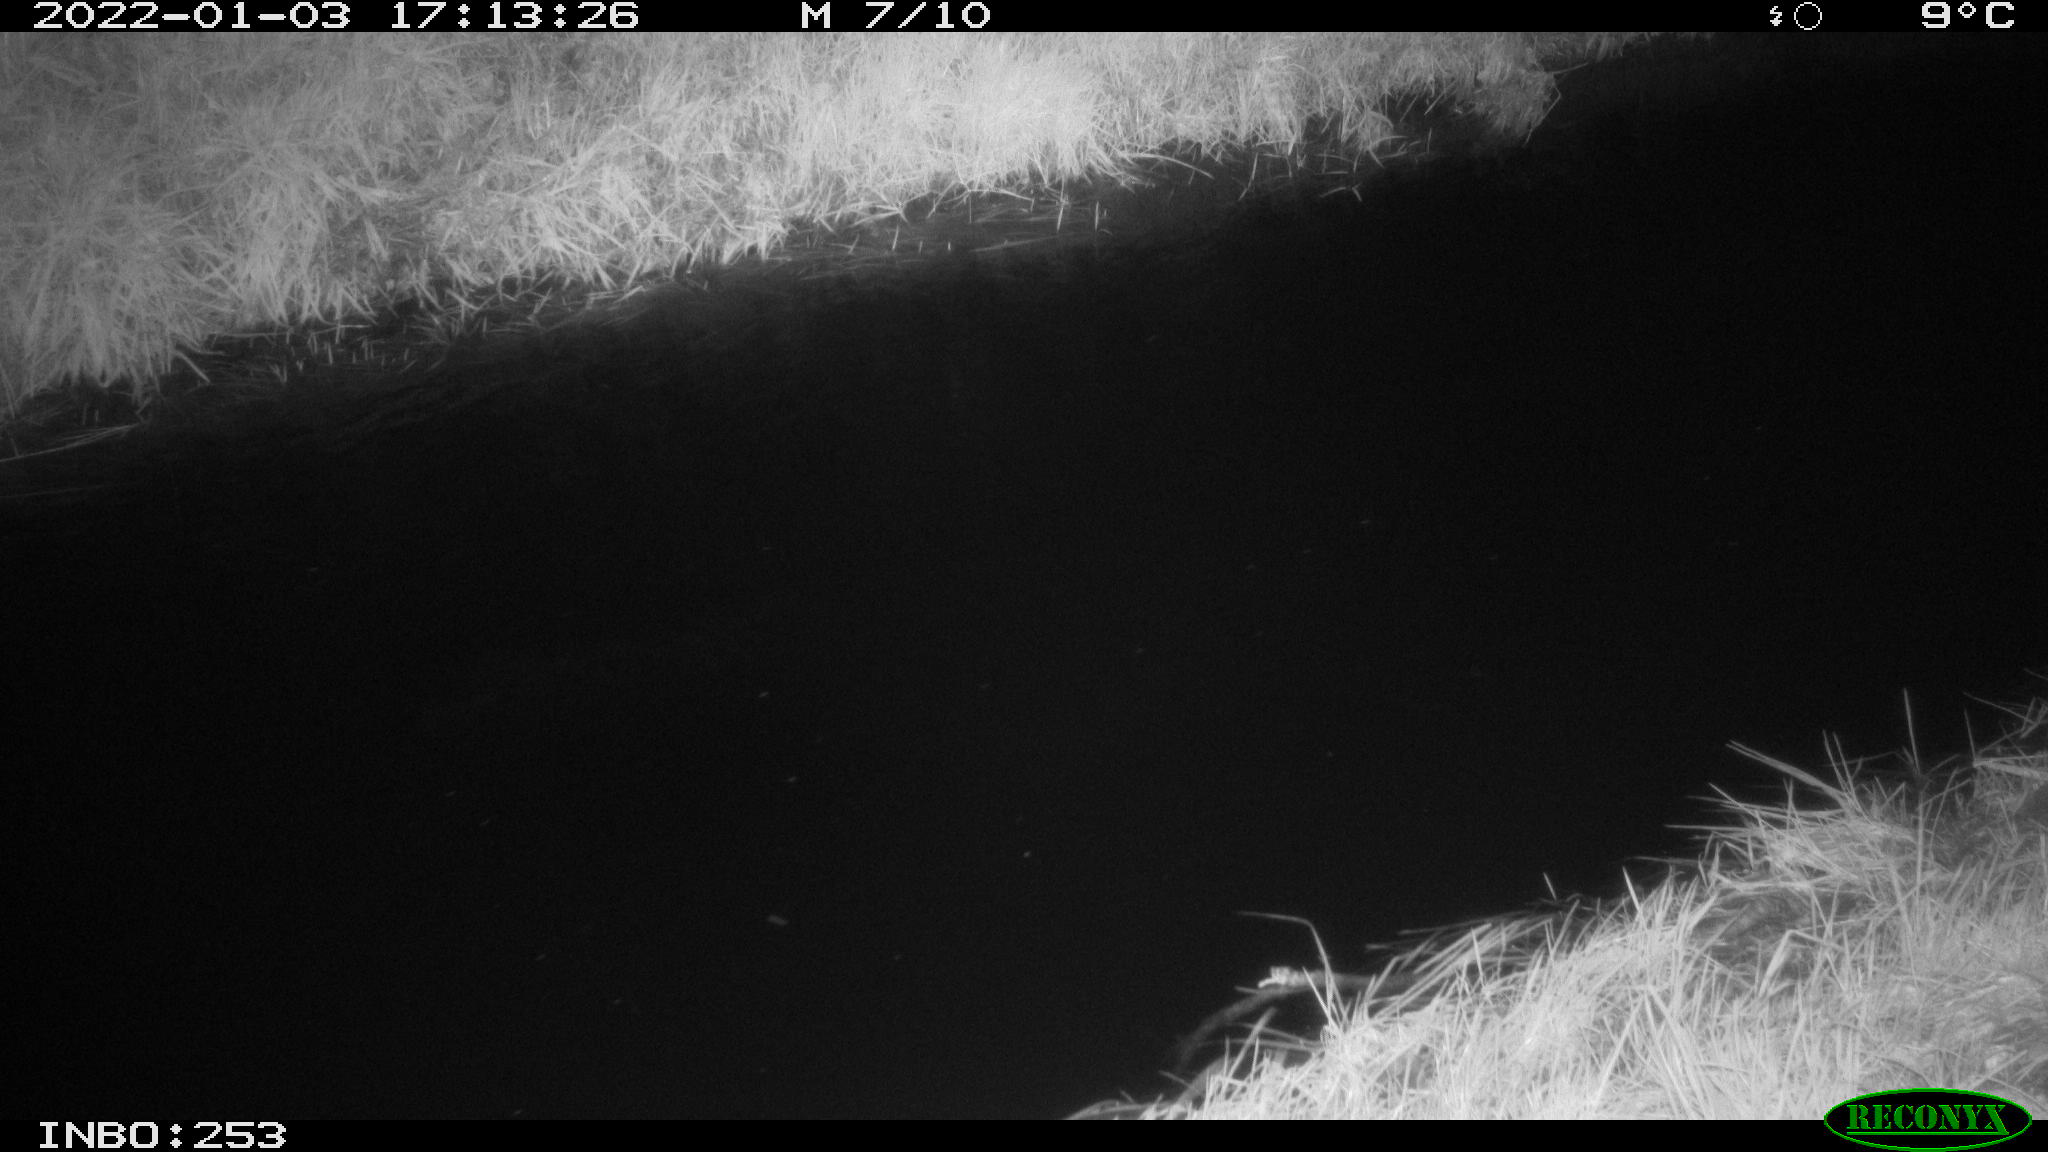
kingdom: Animalia
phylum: Chordata
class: Aves
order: Anseriformes
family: Anatidae
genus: Anas
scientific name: Anas
